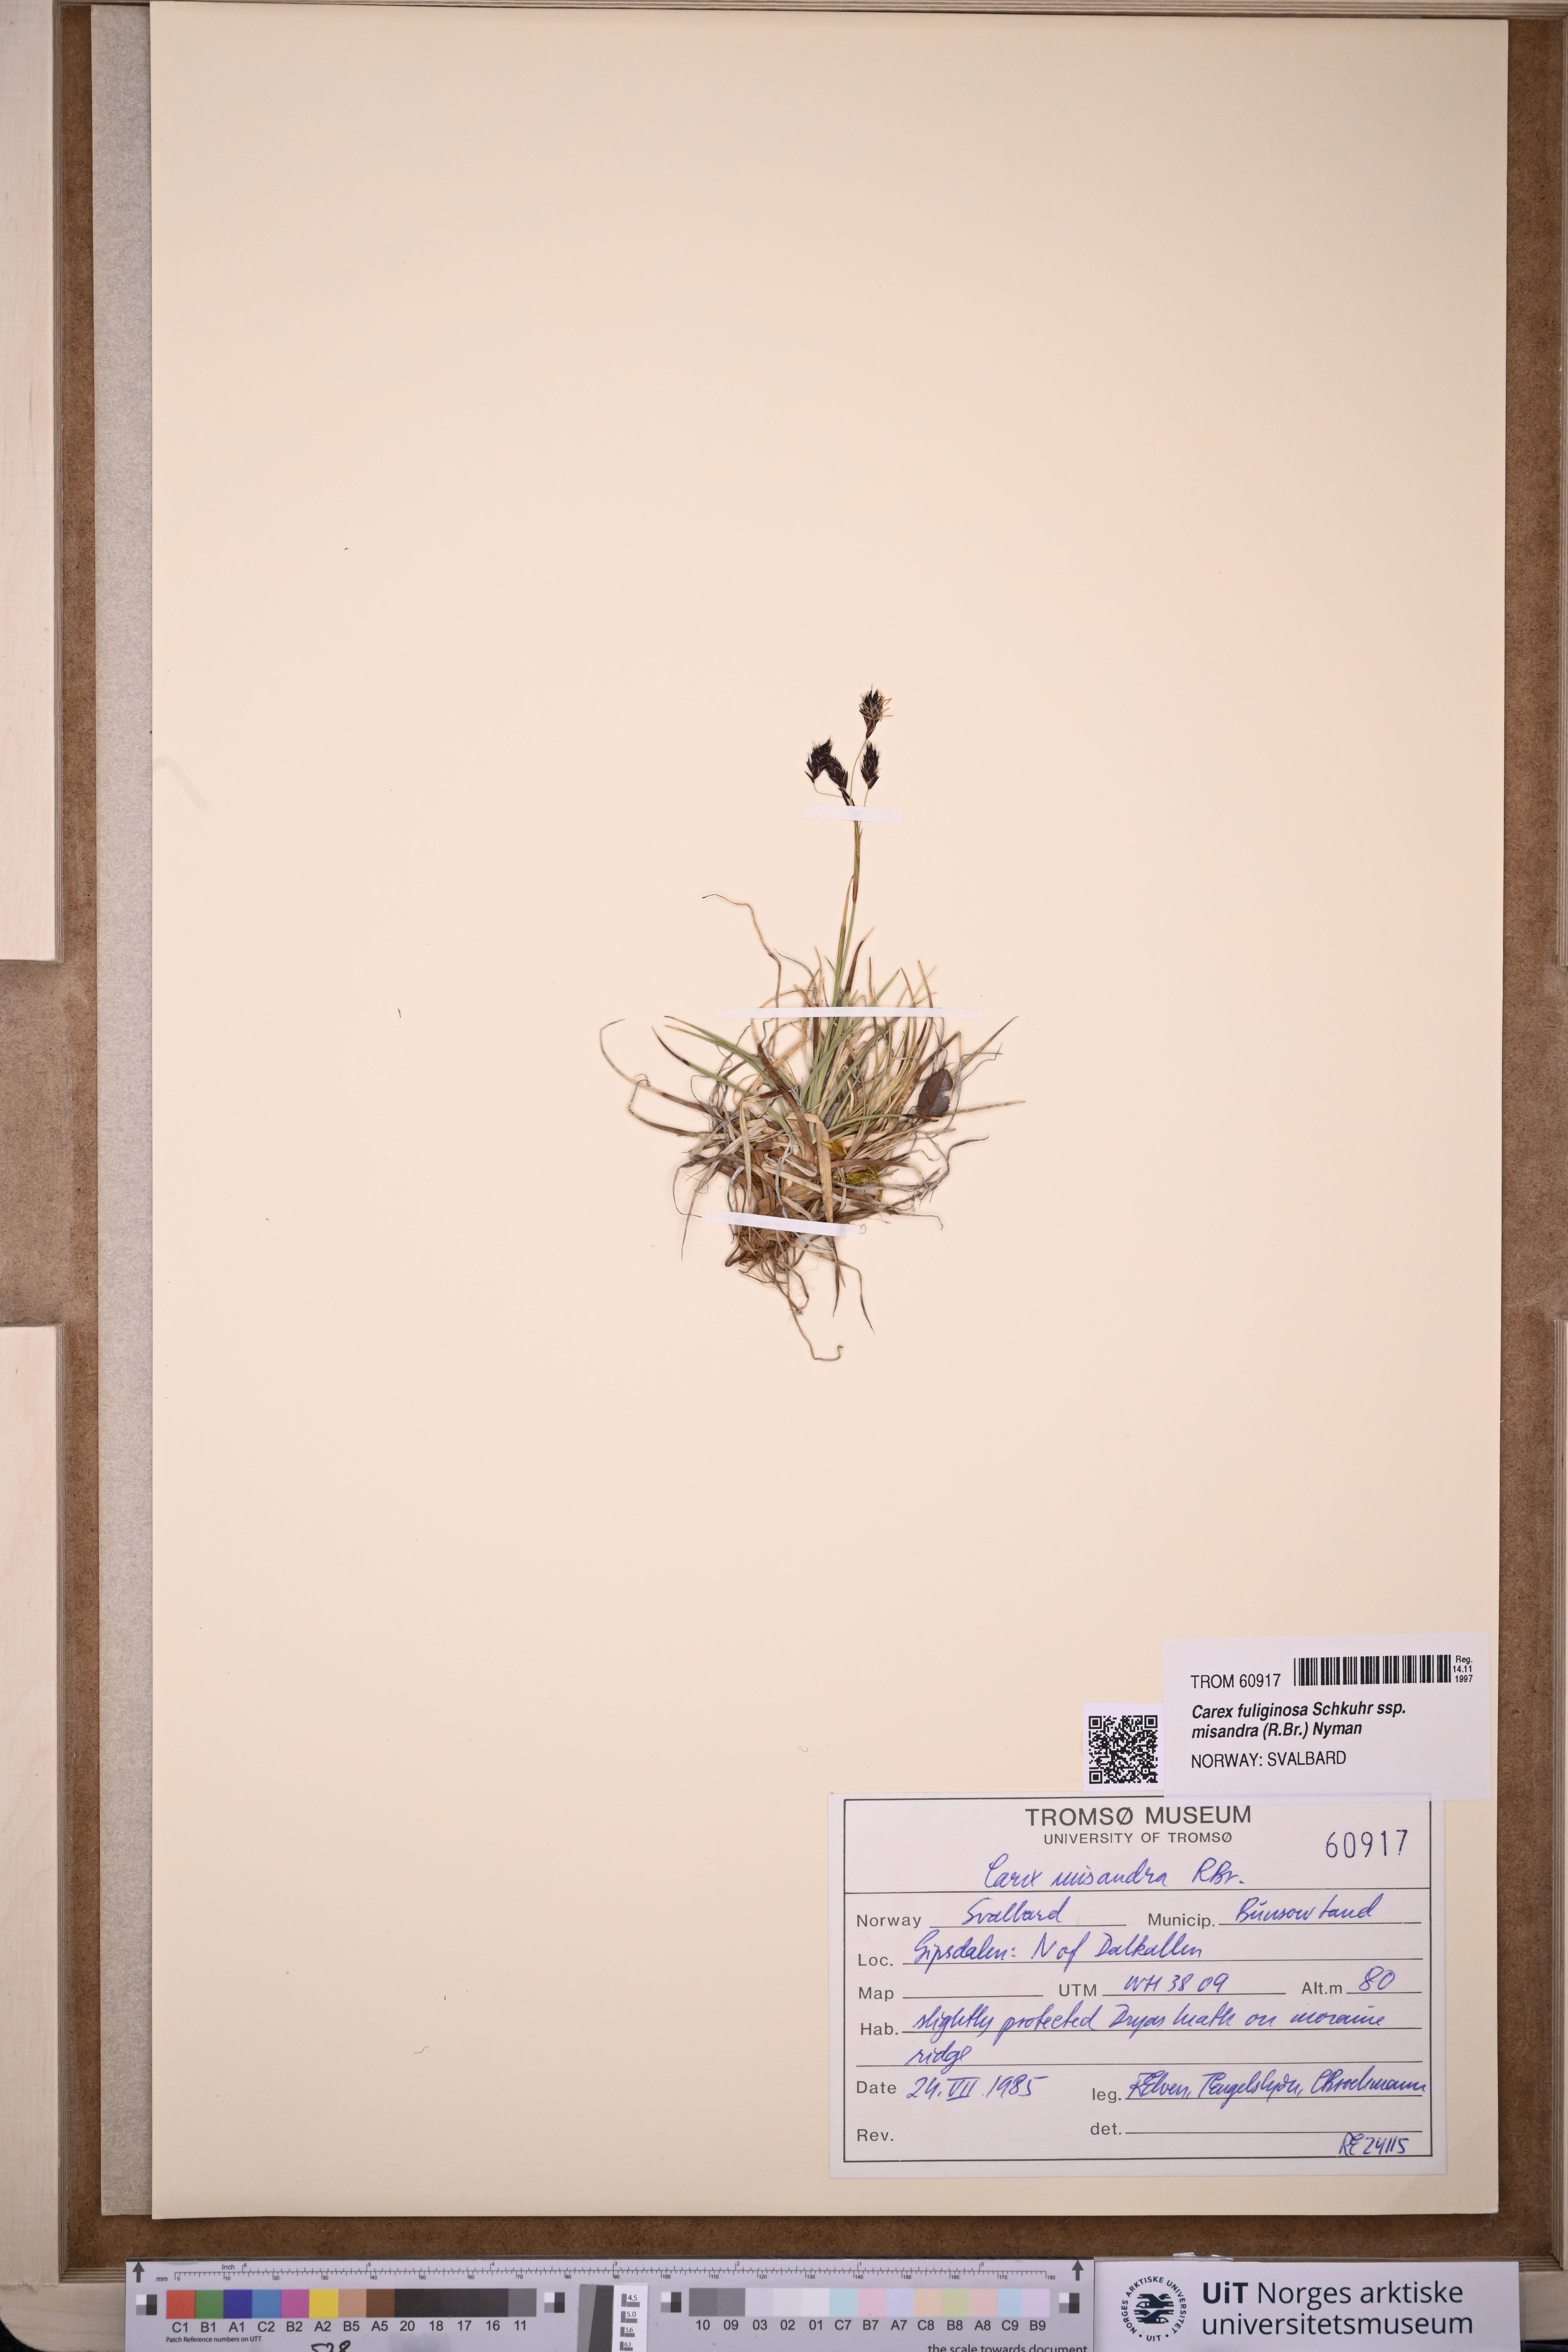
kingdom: Plantae
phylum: Tracheophyta
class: Liliopsida
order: Poales
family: Cyperaceae
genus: Carex
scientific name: Carex fuliginosa
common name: Few-flowered sedge
